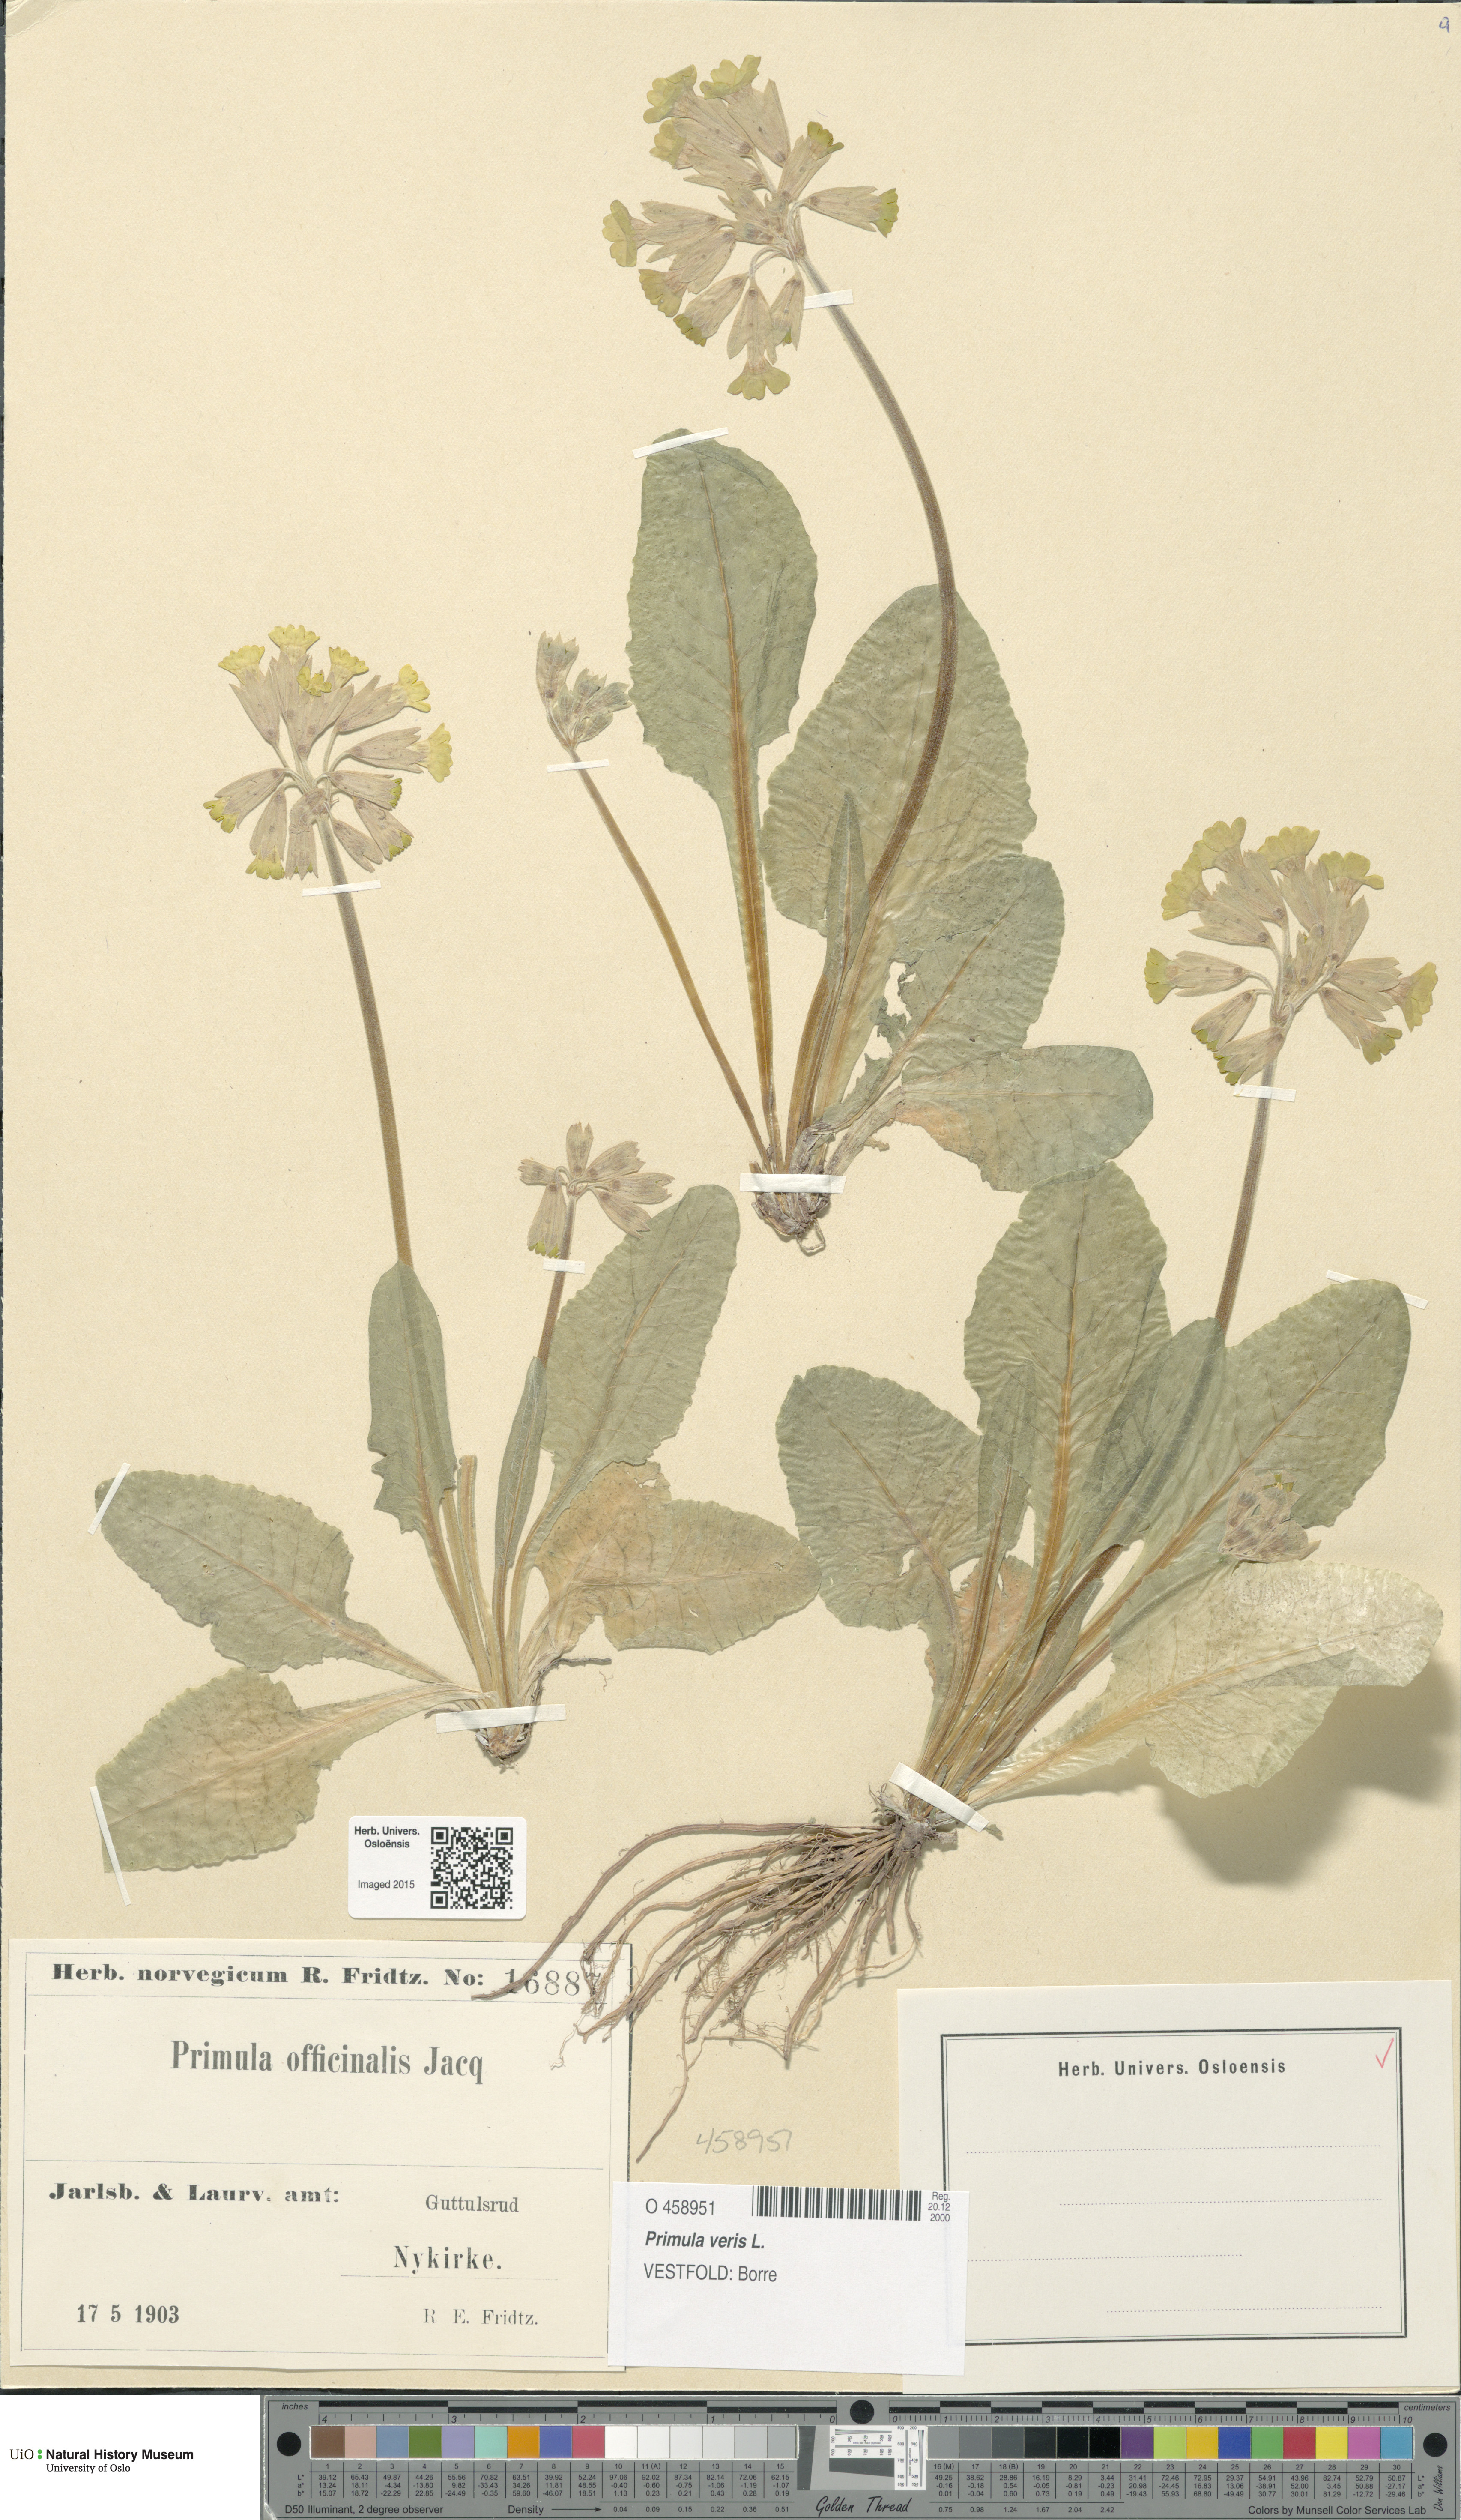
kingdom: Plantae
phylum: Tracheophyta
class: Magnoliopsida
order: Ericales
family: Primulaceae
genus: Primula
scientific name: Primula veris
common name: Cowslip
